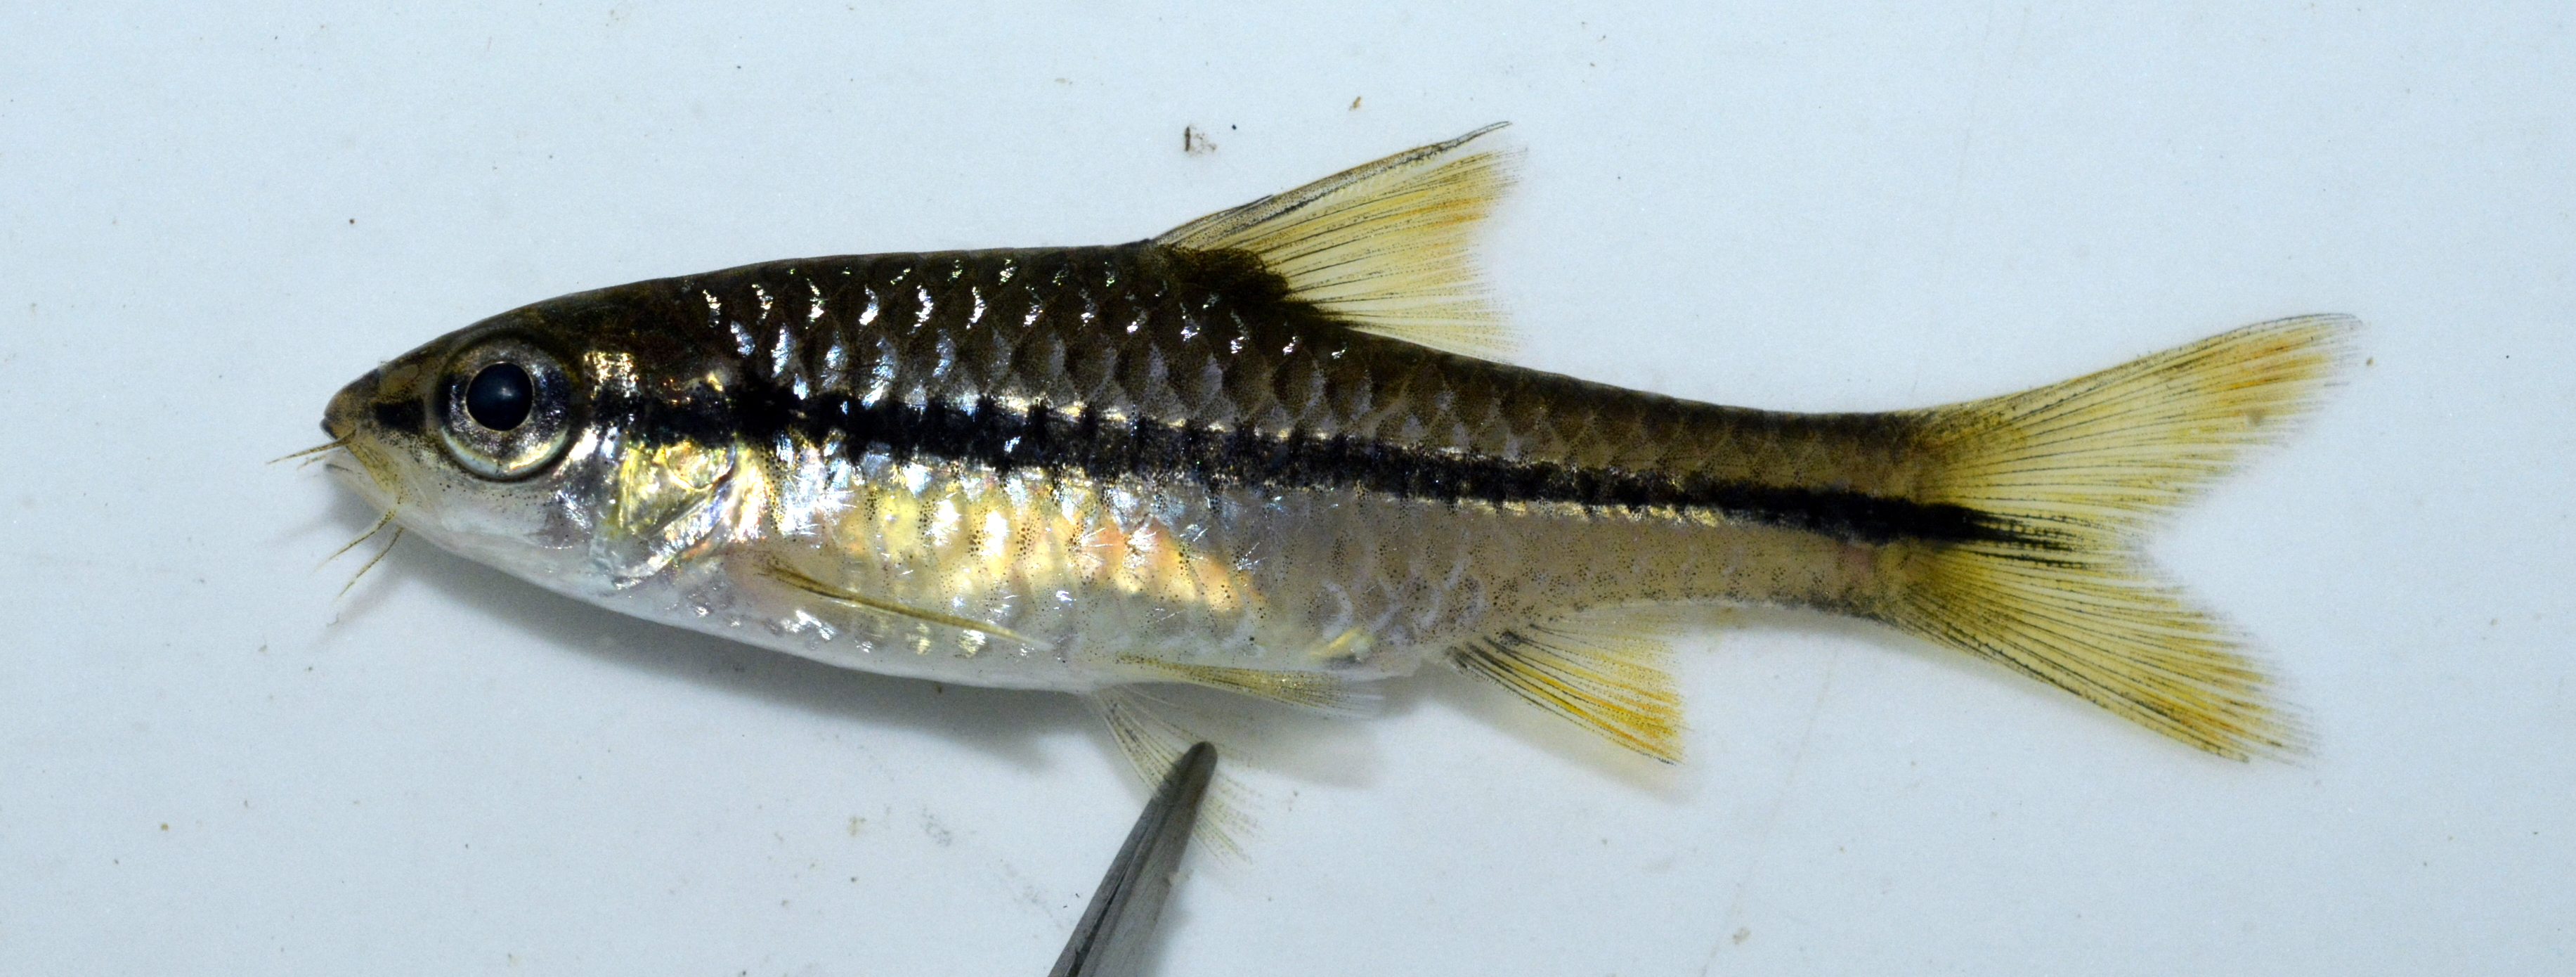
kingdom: Animalia
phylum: Chordata
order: Cypriniformes
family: Cyprinidae
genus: Enteromius
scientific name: Enteromius eutaenia
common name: Orangefin barb
